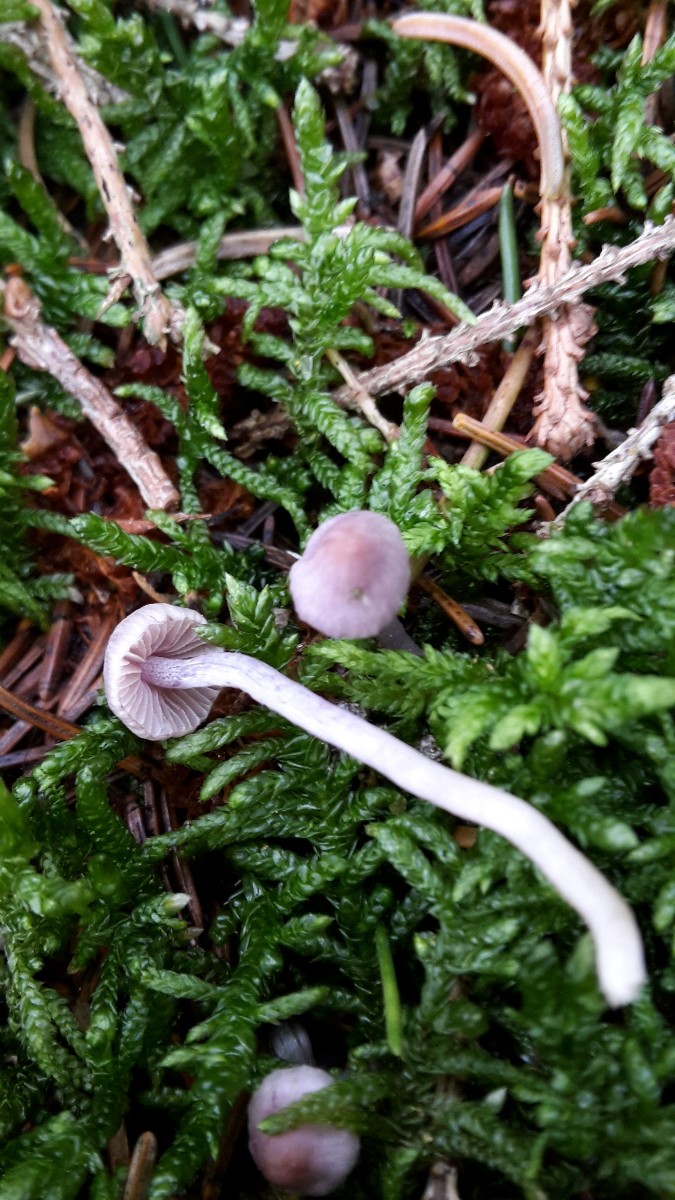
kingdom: Fungi
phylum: Basidiomycota
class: Agaricomycetes
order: Agaricales
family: Inocybaceae
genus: Inocybe
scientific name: Inocybe geophylla
